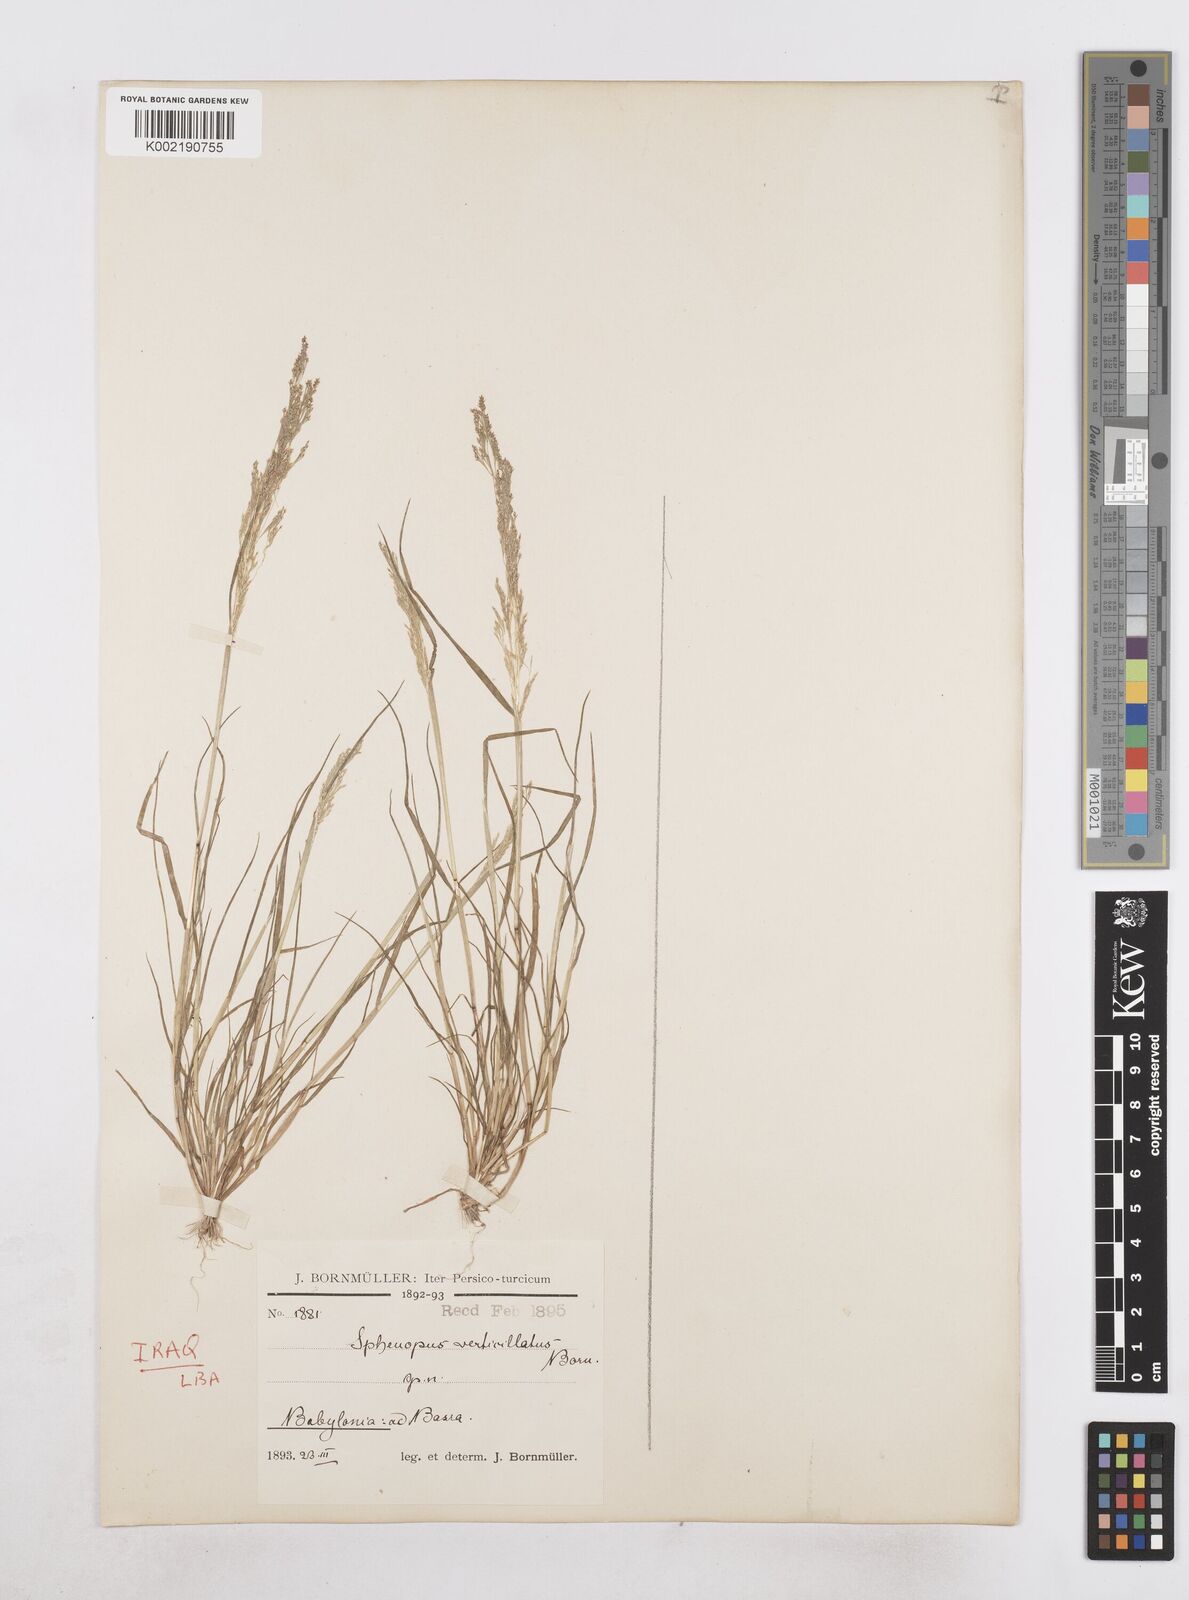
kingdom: Plantae
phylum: Tracheophyta
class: Liliopsida
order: Poales
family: Poaceae
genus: Sphenopus
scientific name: Sphenopus divaricatus
